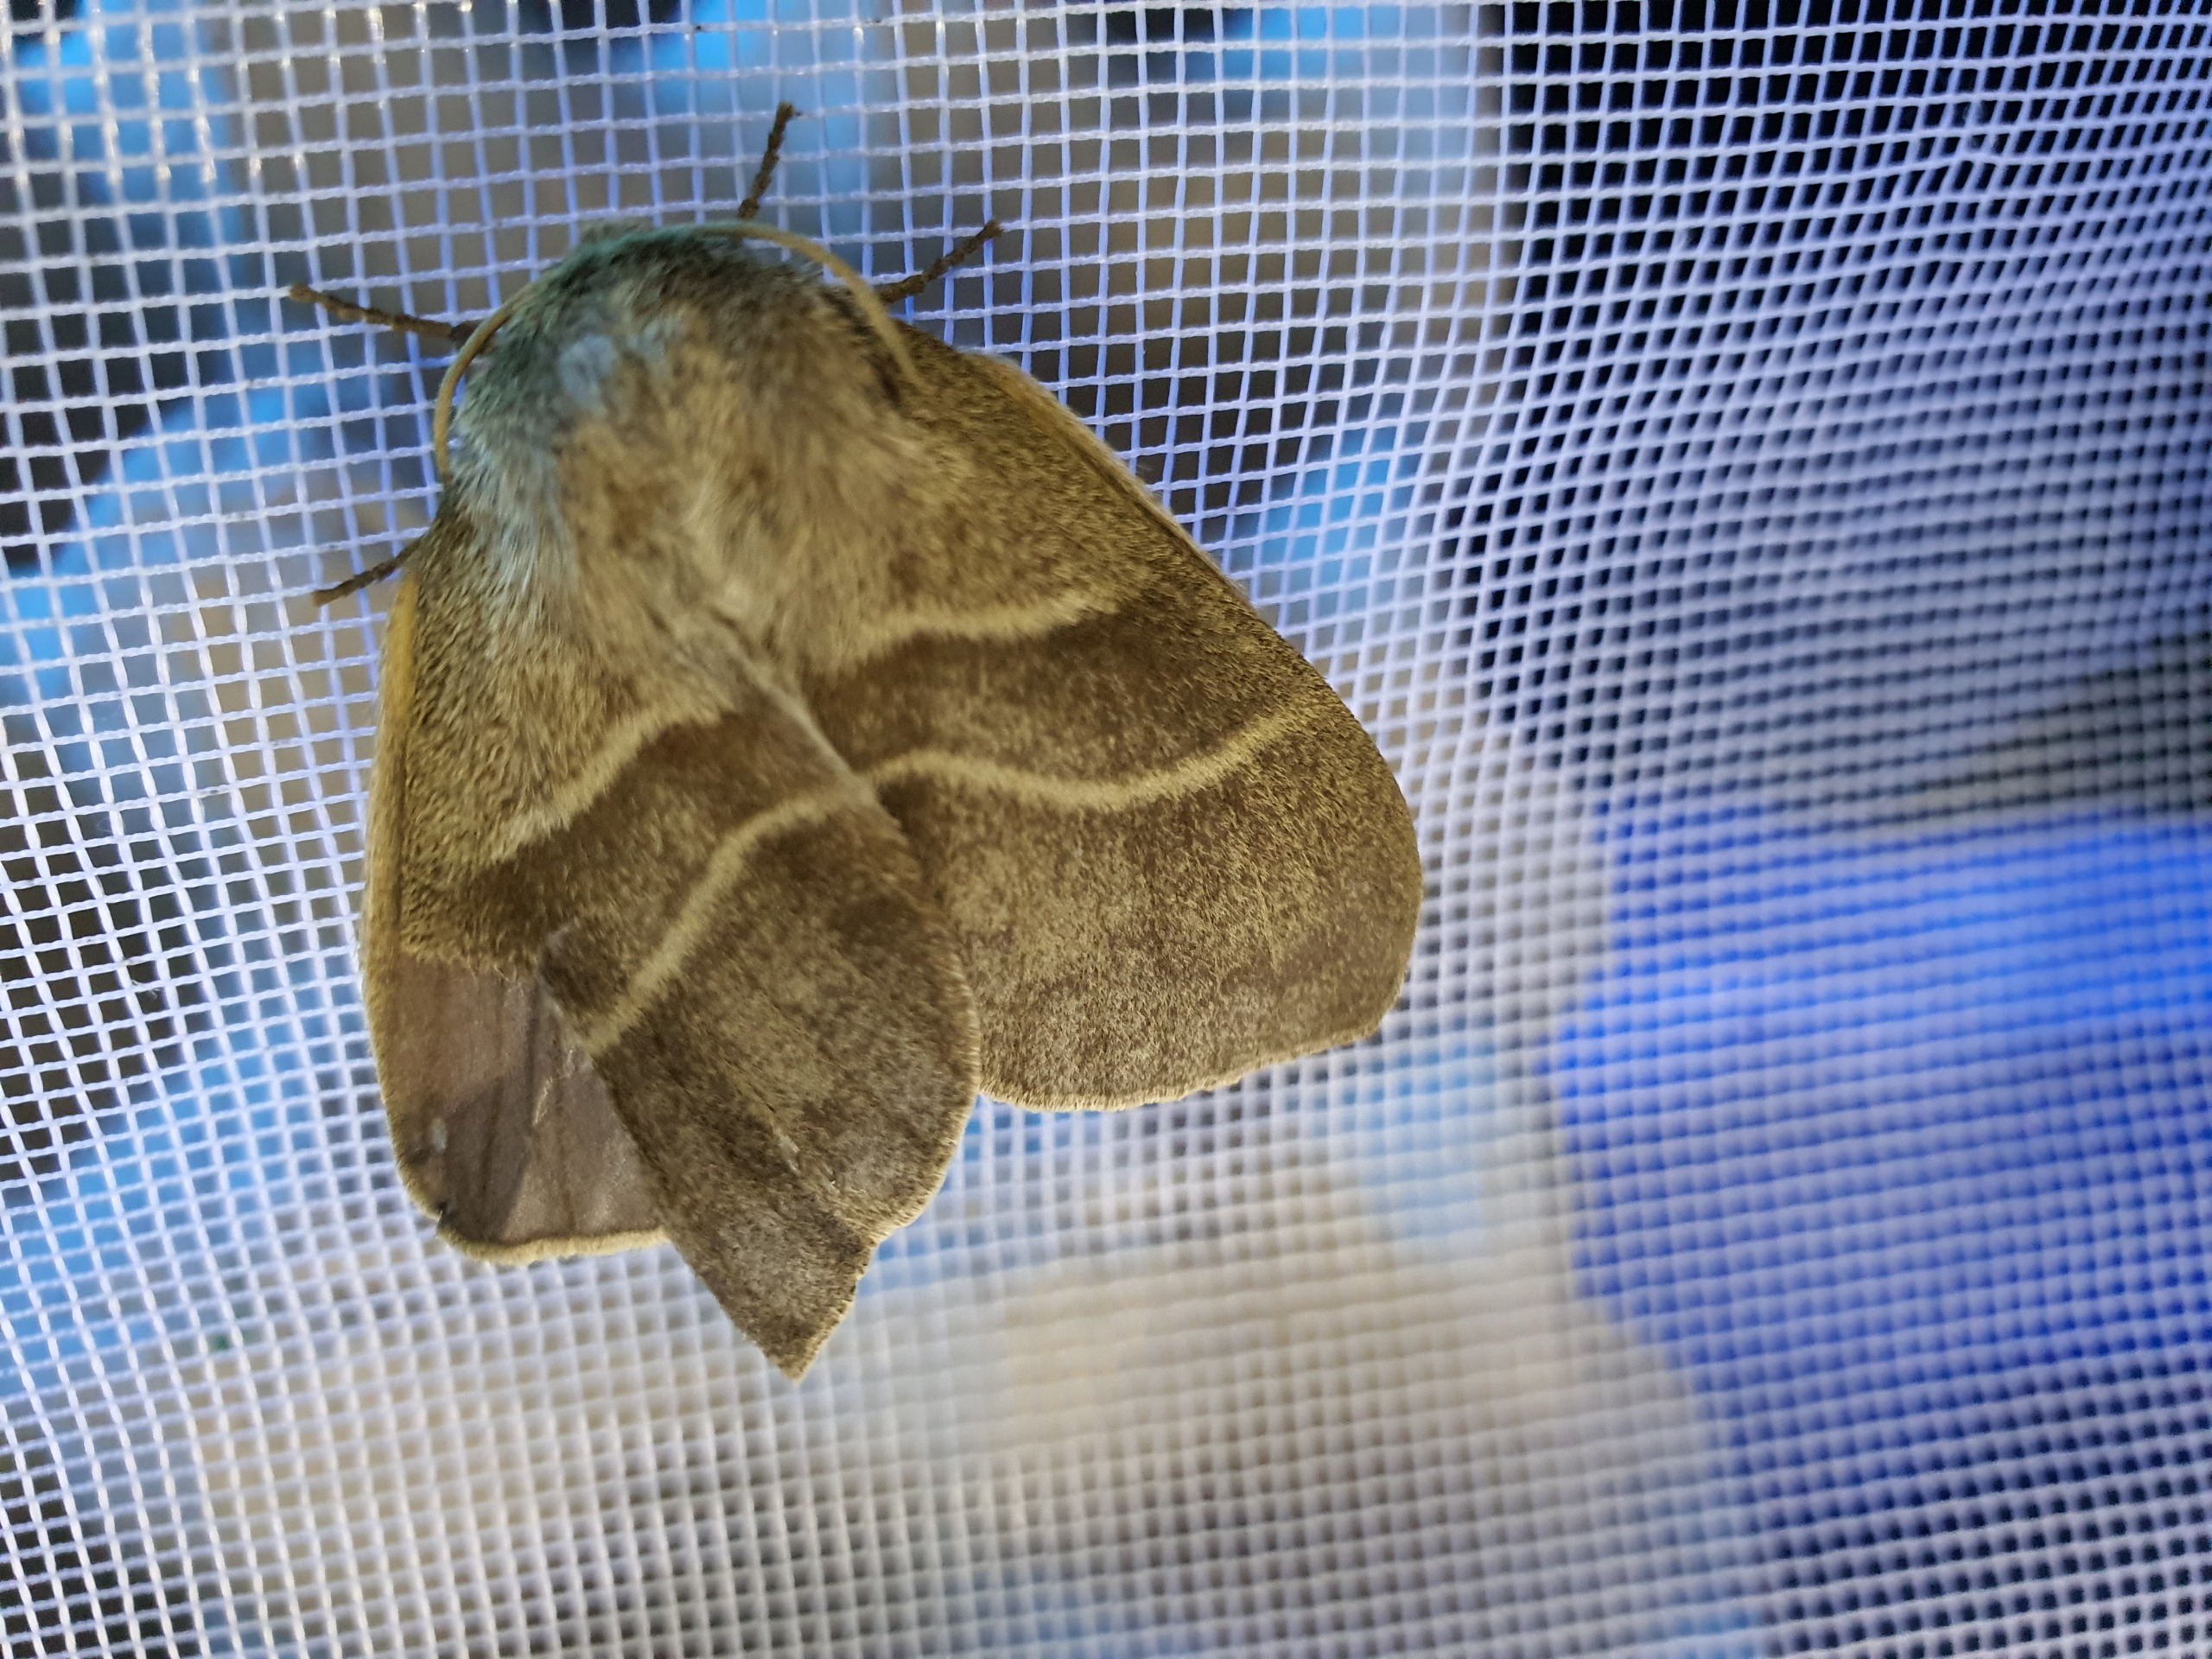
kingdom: Animalia
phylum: Arthropoda
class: Insecta
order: Lepidoptera
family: Lasiocampidae
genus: Macrothylacia
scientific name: Macrothylacia rubi
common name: Brombærspinder
